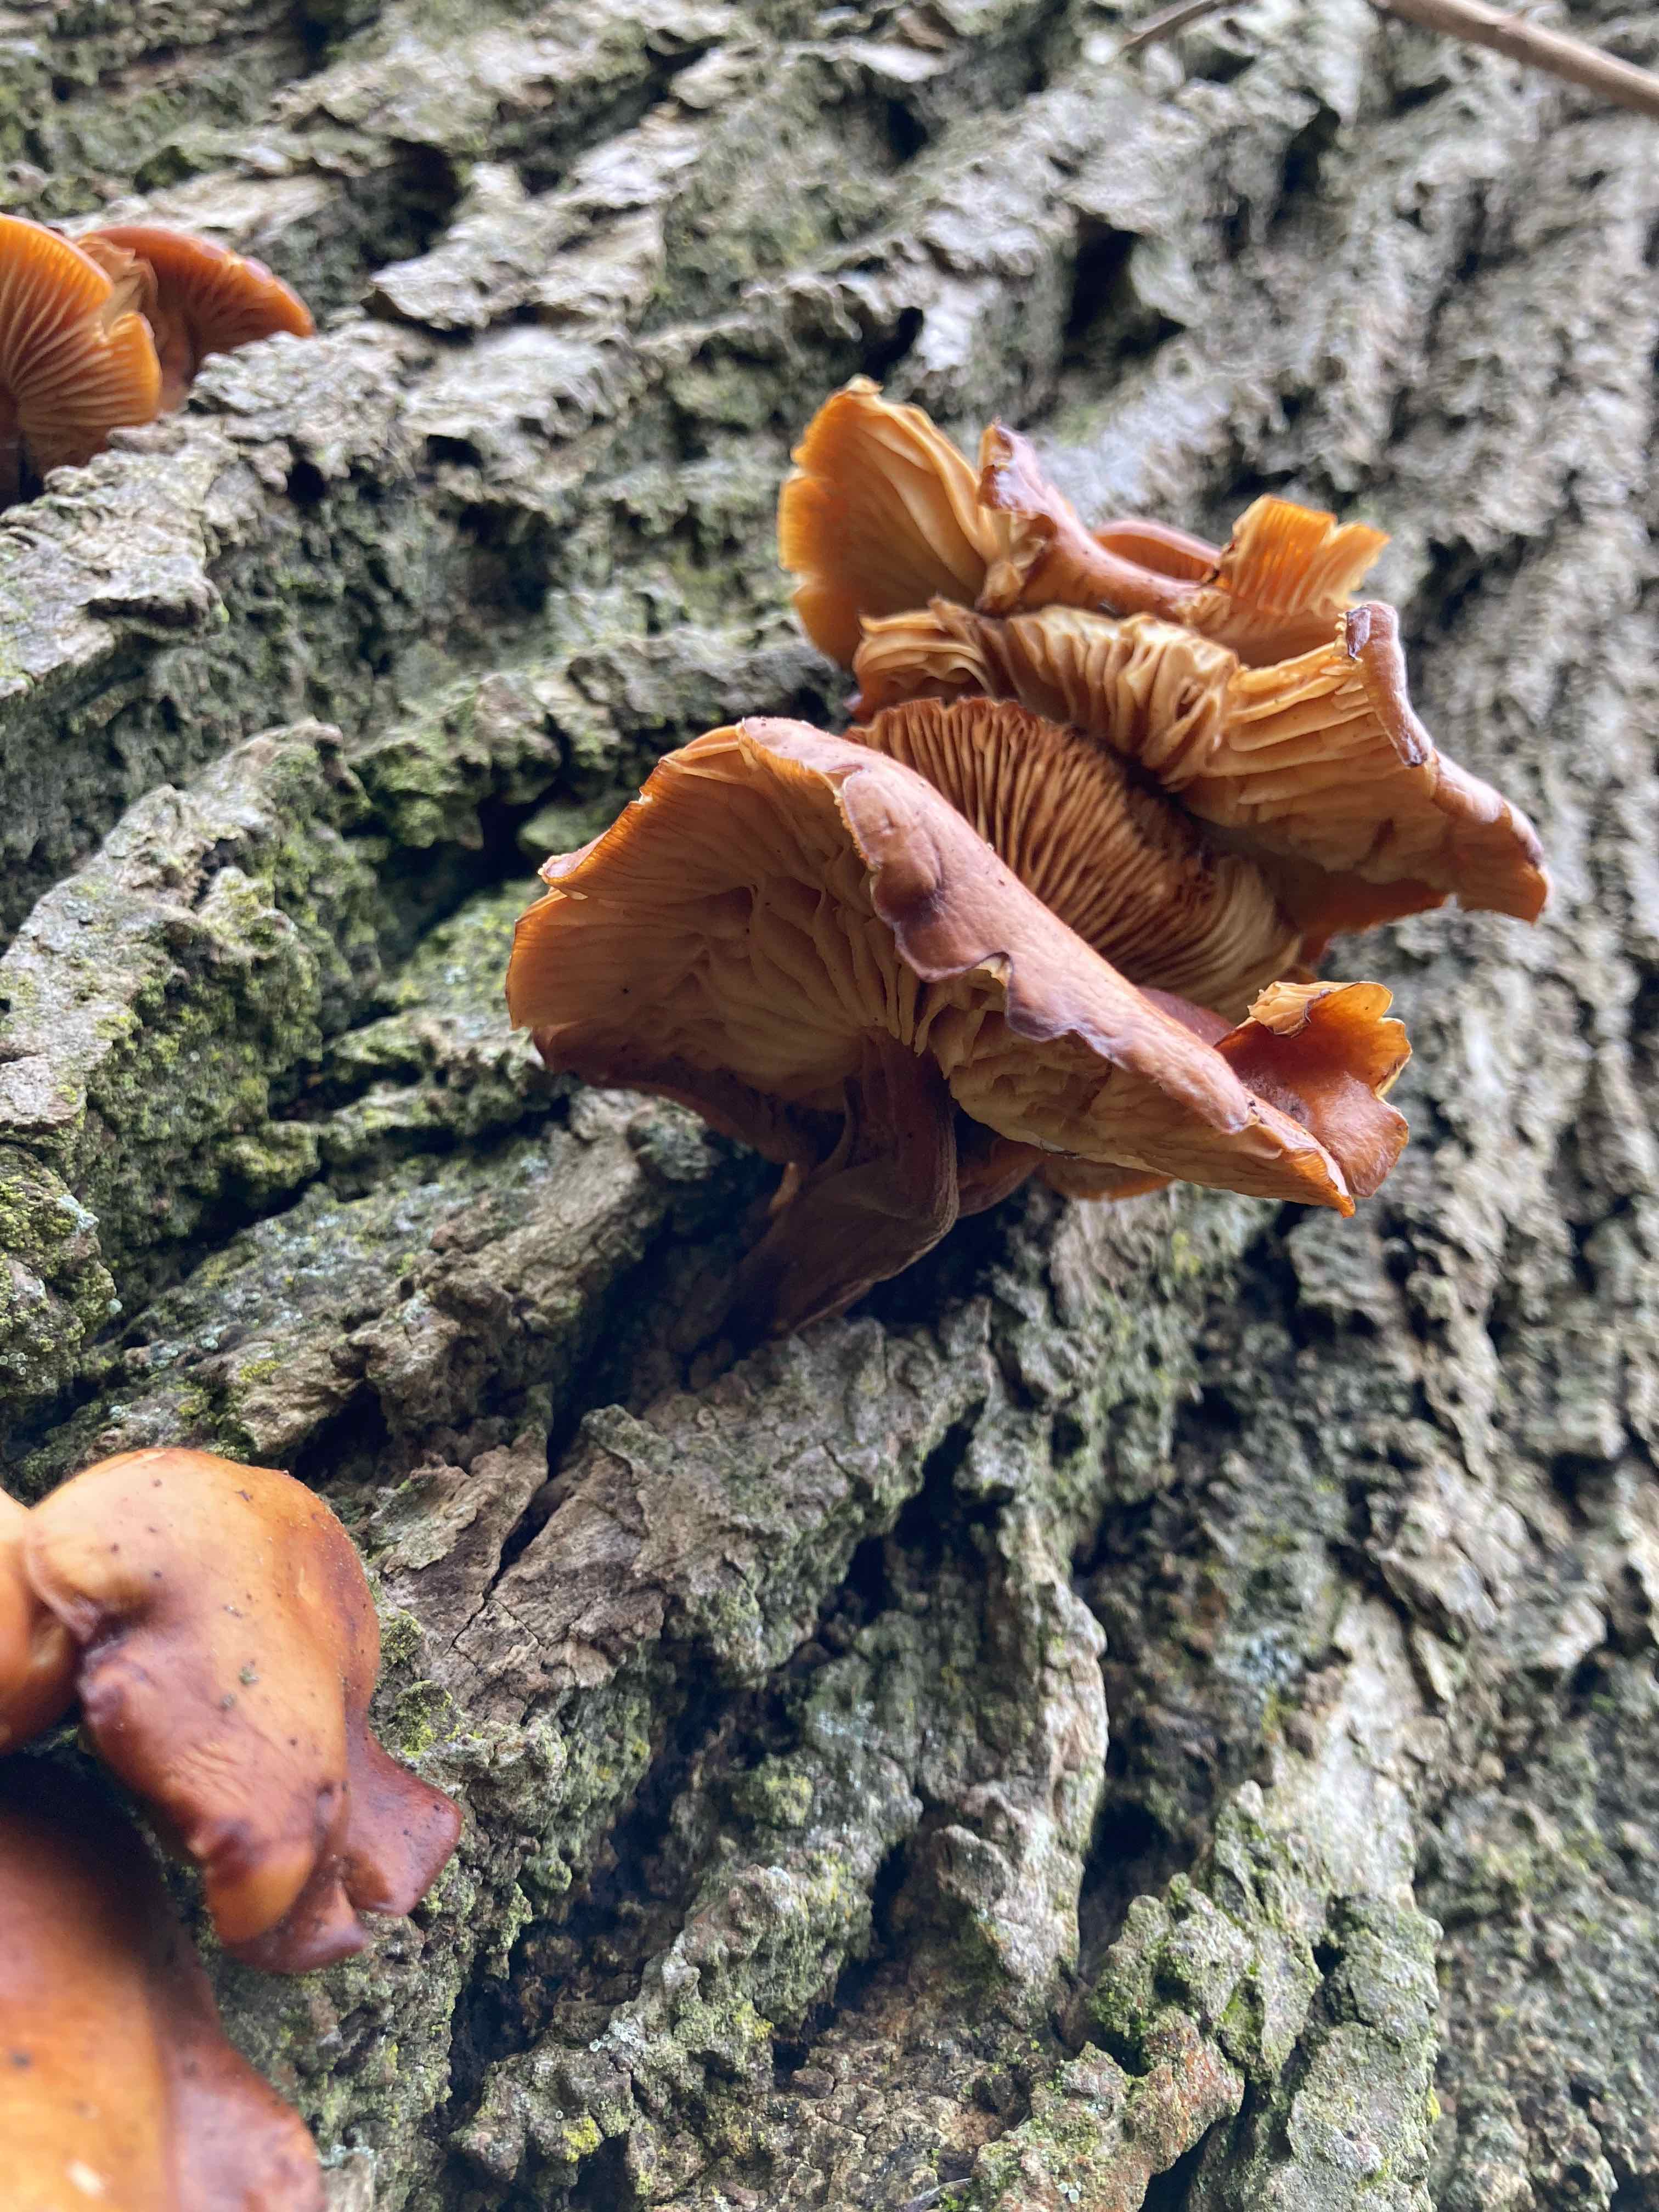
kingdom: Fungi
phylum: Basidiomycota
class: Agaricomycetes
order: Agaricales
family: Physalacriaceae
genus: Flammulina
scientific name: Flammulina
